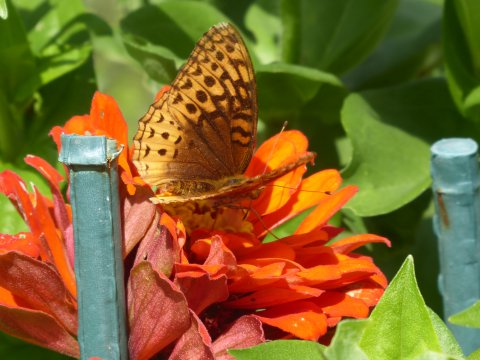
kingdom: Animalia
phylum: Arthropoda
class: Insecta
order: Lepidoptera
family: Nymphalidae
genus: Speyeria
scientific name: Speyeria cybele
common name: Great Spangled Fritillary
